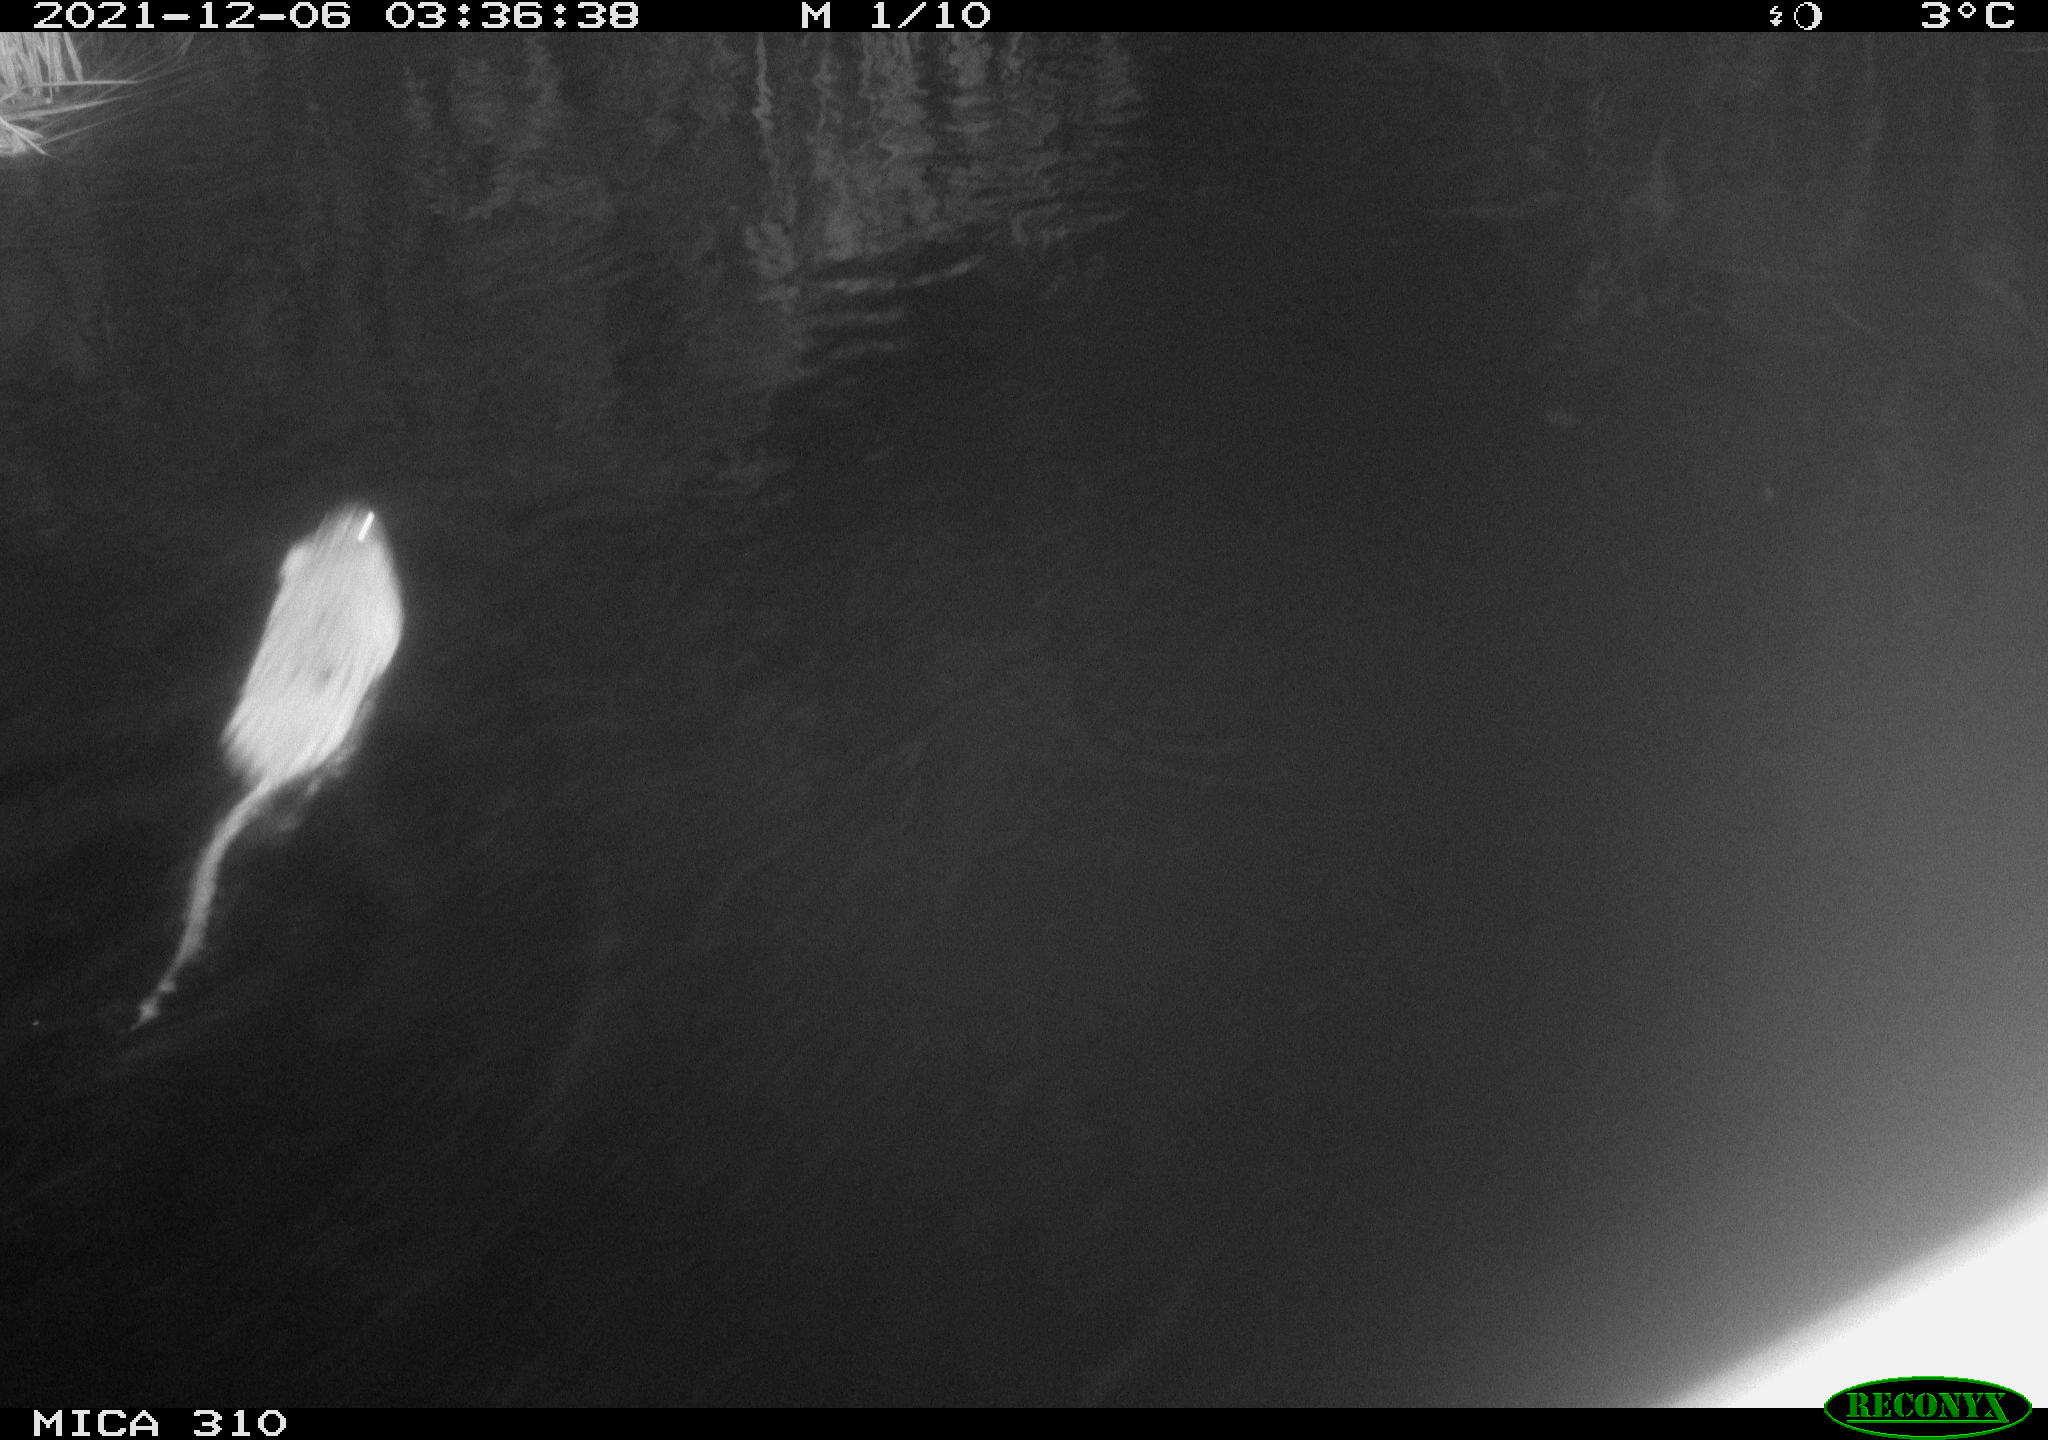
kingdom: Animalia
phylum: Chordata
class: Mammalia
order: Rodentia
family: Muridae
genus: Rattus
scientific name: Rattus norvegicus
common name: Brown rat
